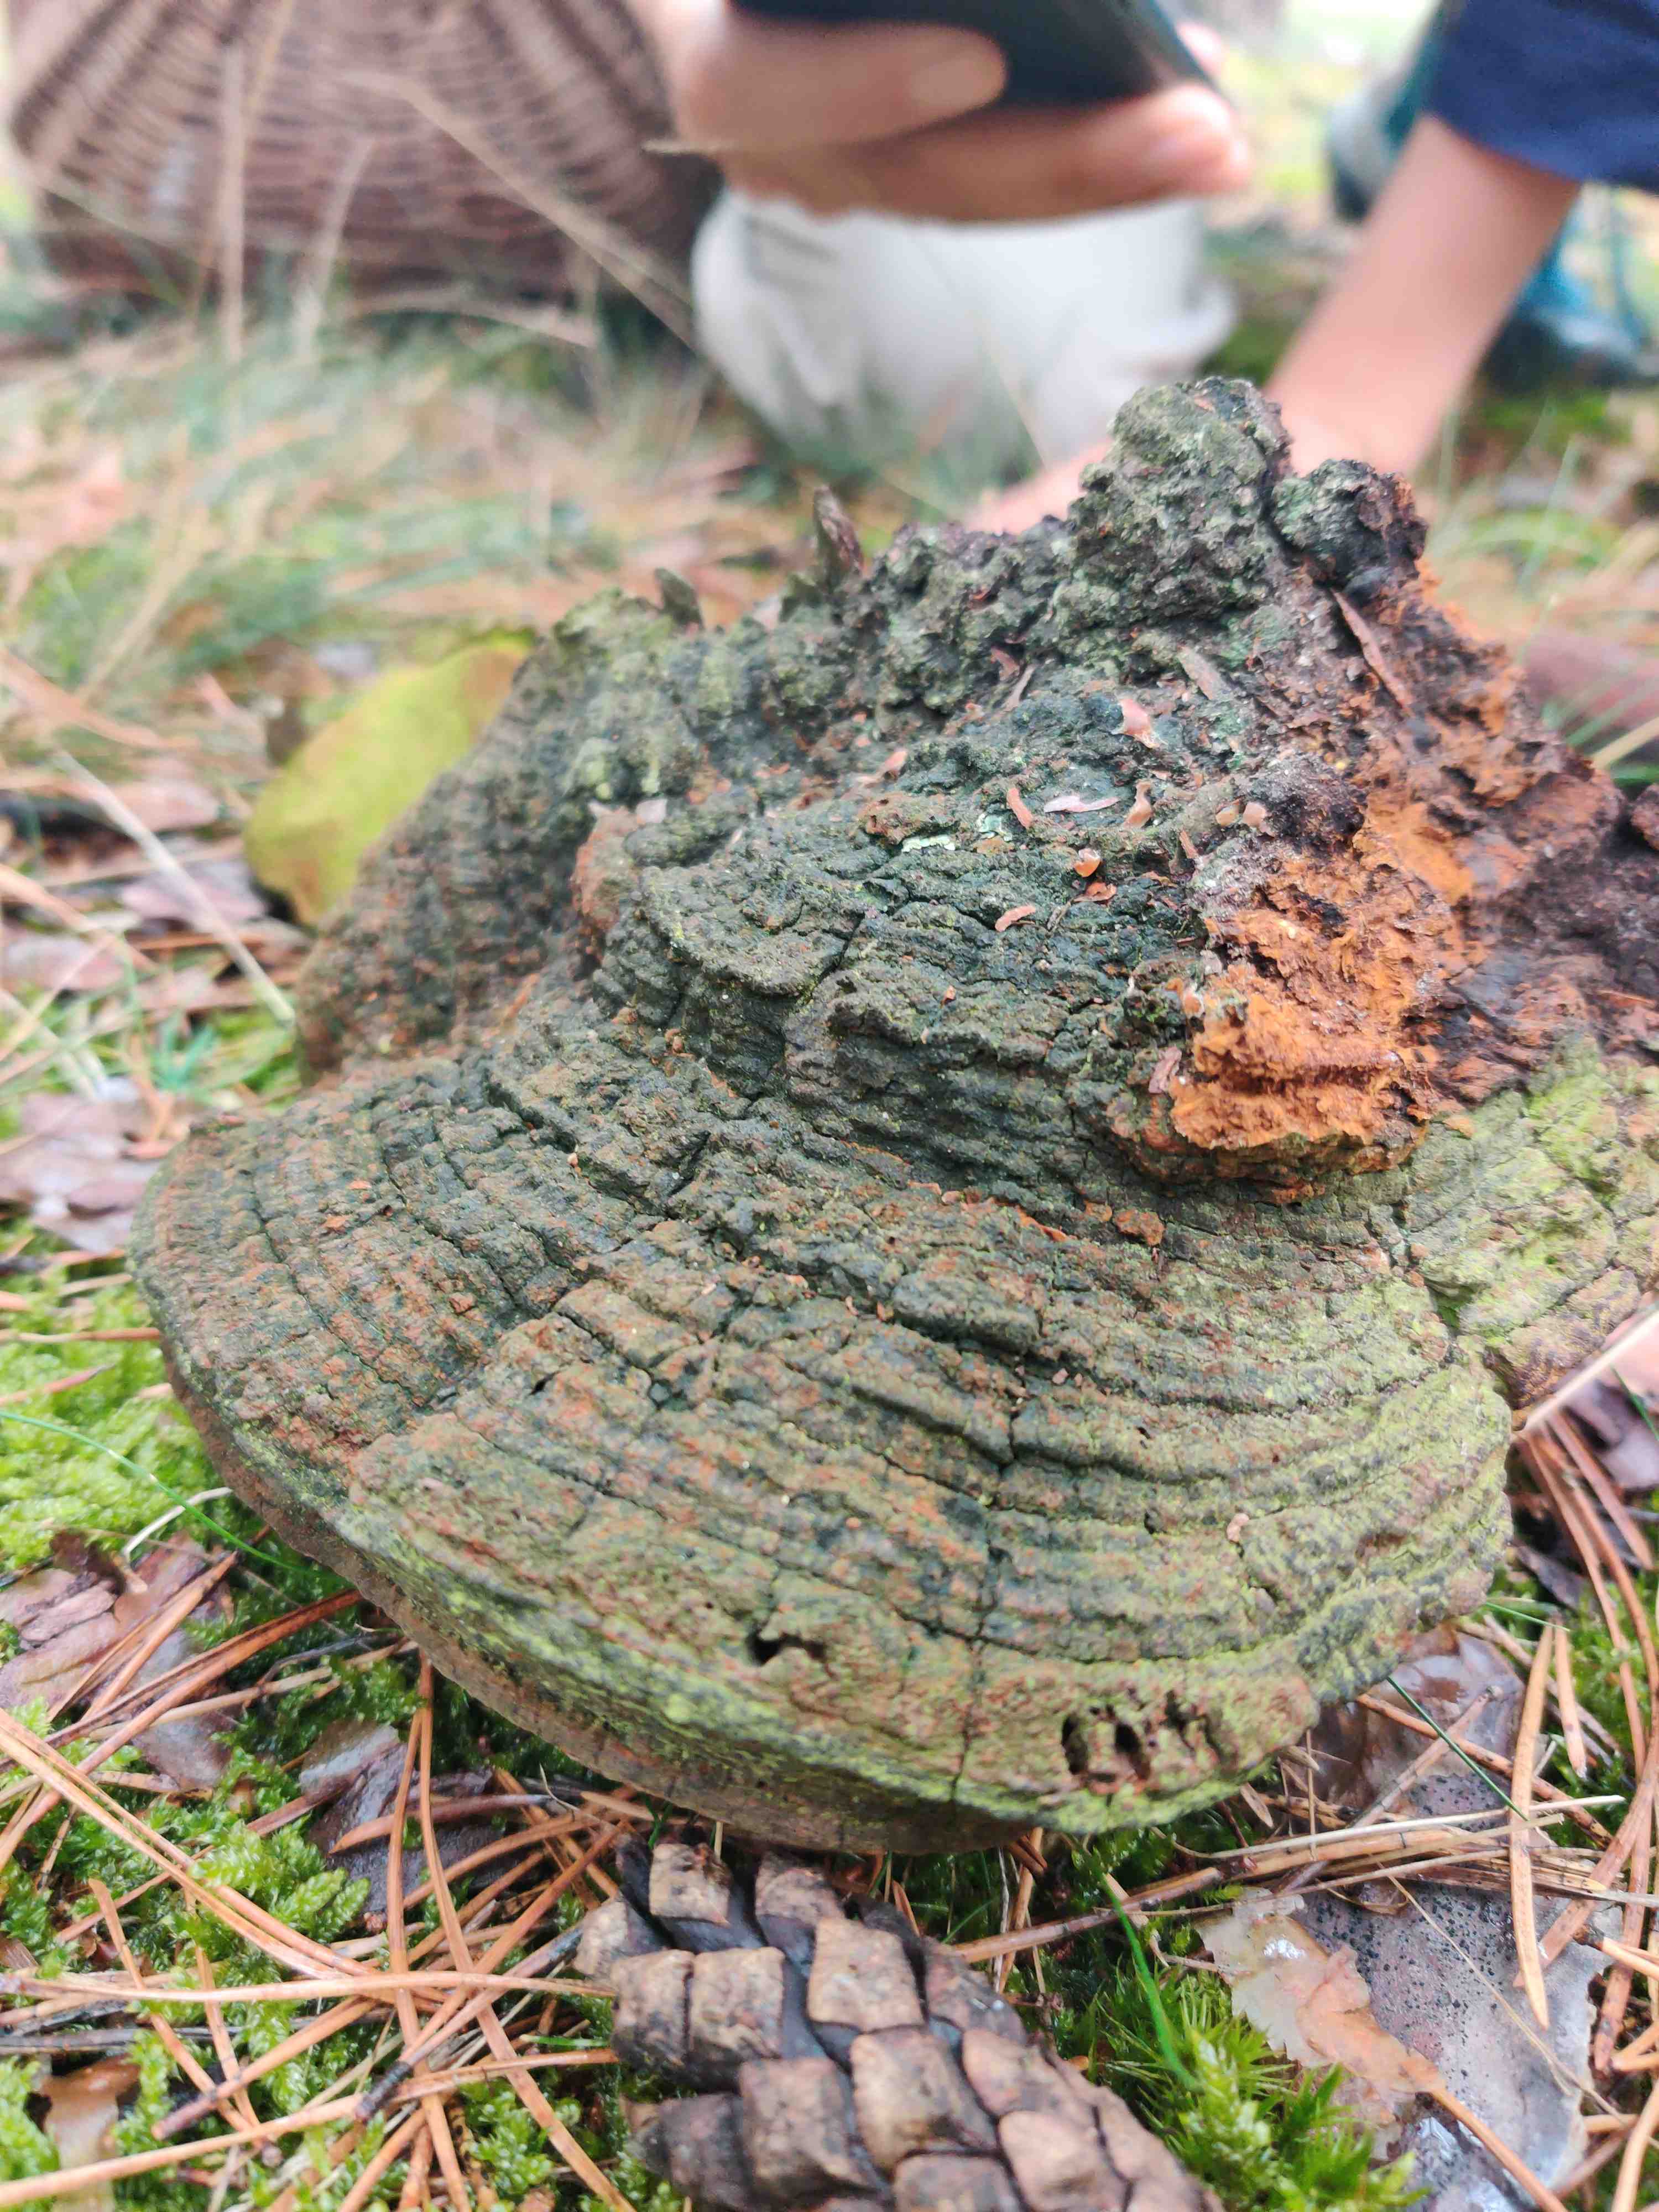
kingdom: Fungi
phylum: Basidiomycota
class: Agaricomycetes
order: Hymenochaetales
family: Hymenochaetaceae
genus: Porodaedalea
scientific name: Porodaedalea pini
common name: fyrre-ildporesvamp
